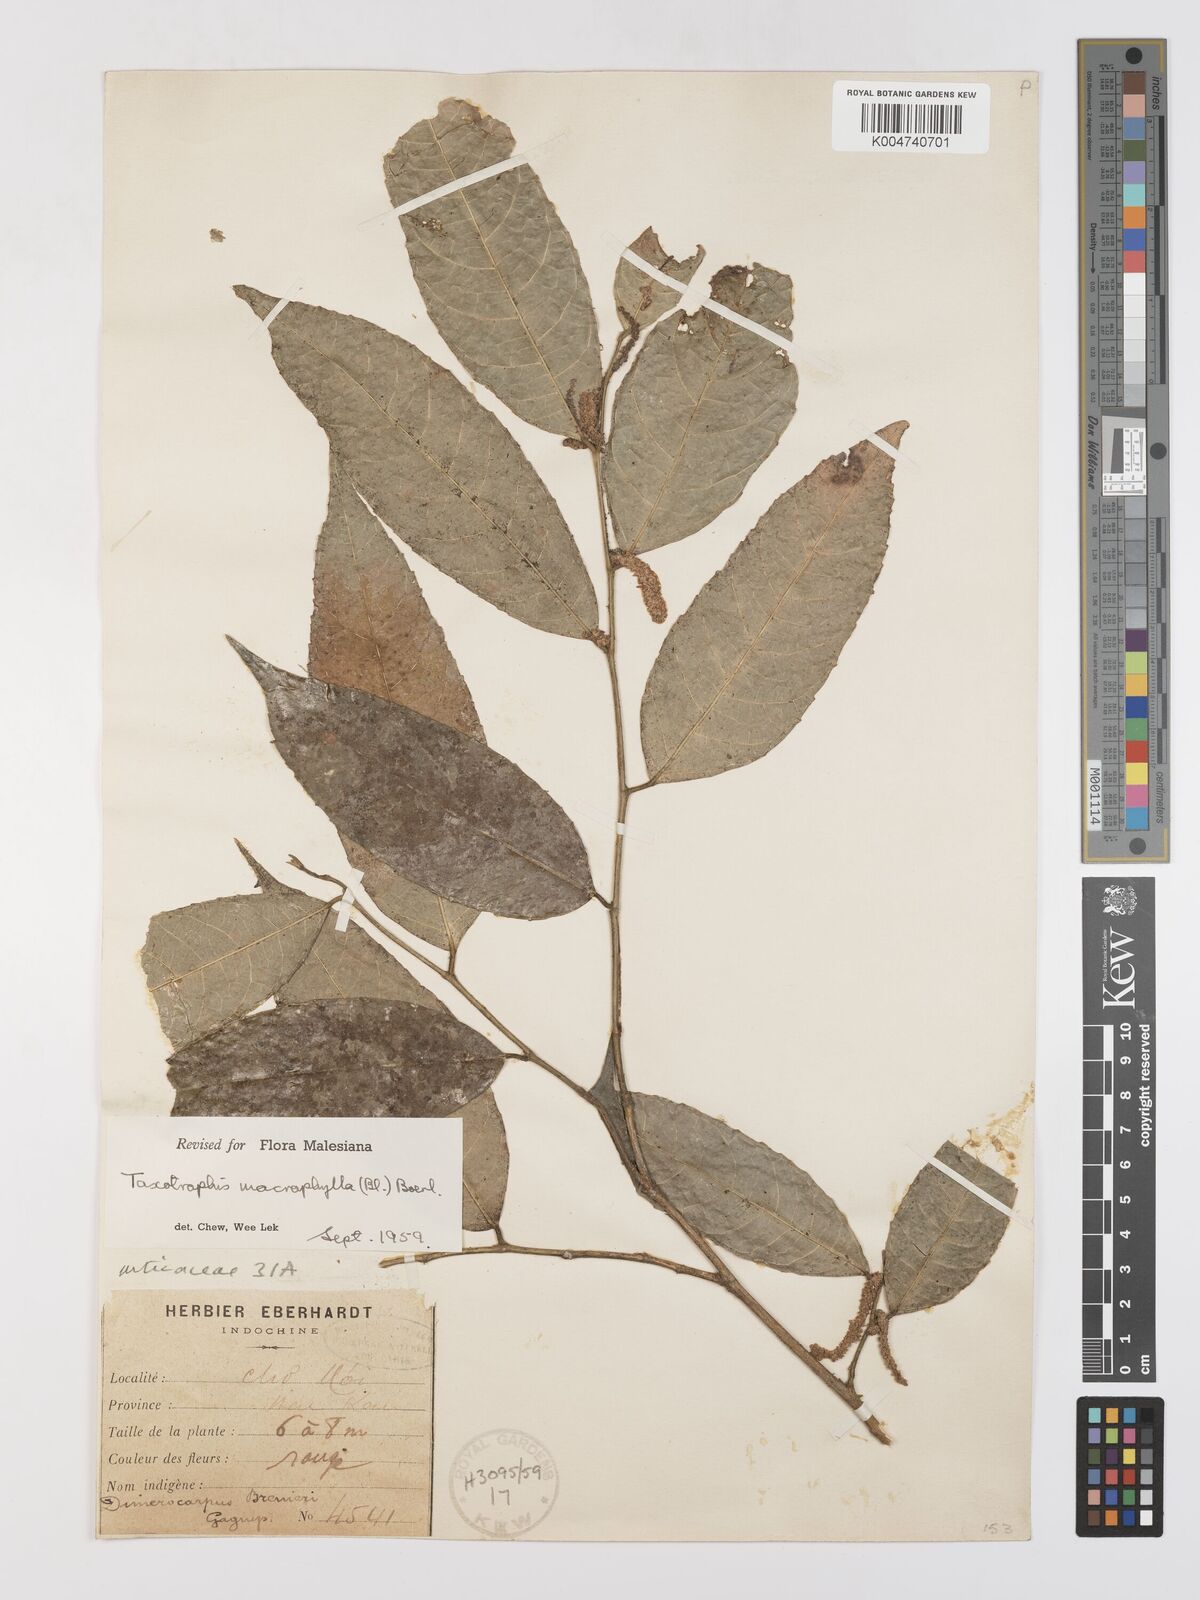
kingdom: Plantae
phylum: Tracheophyta
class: Magnoliopsida
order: Rosales
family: Moraceae
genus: Taxotrophis
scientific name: Taxotrophis macrophylla
